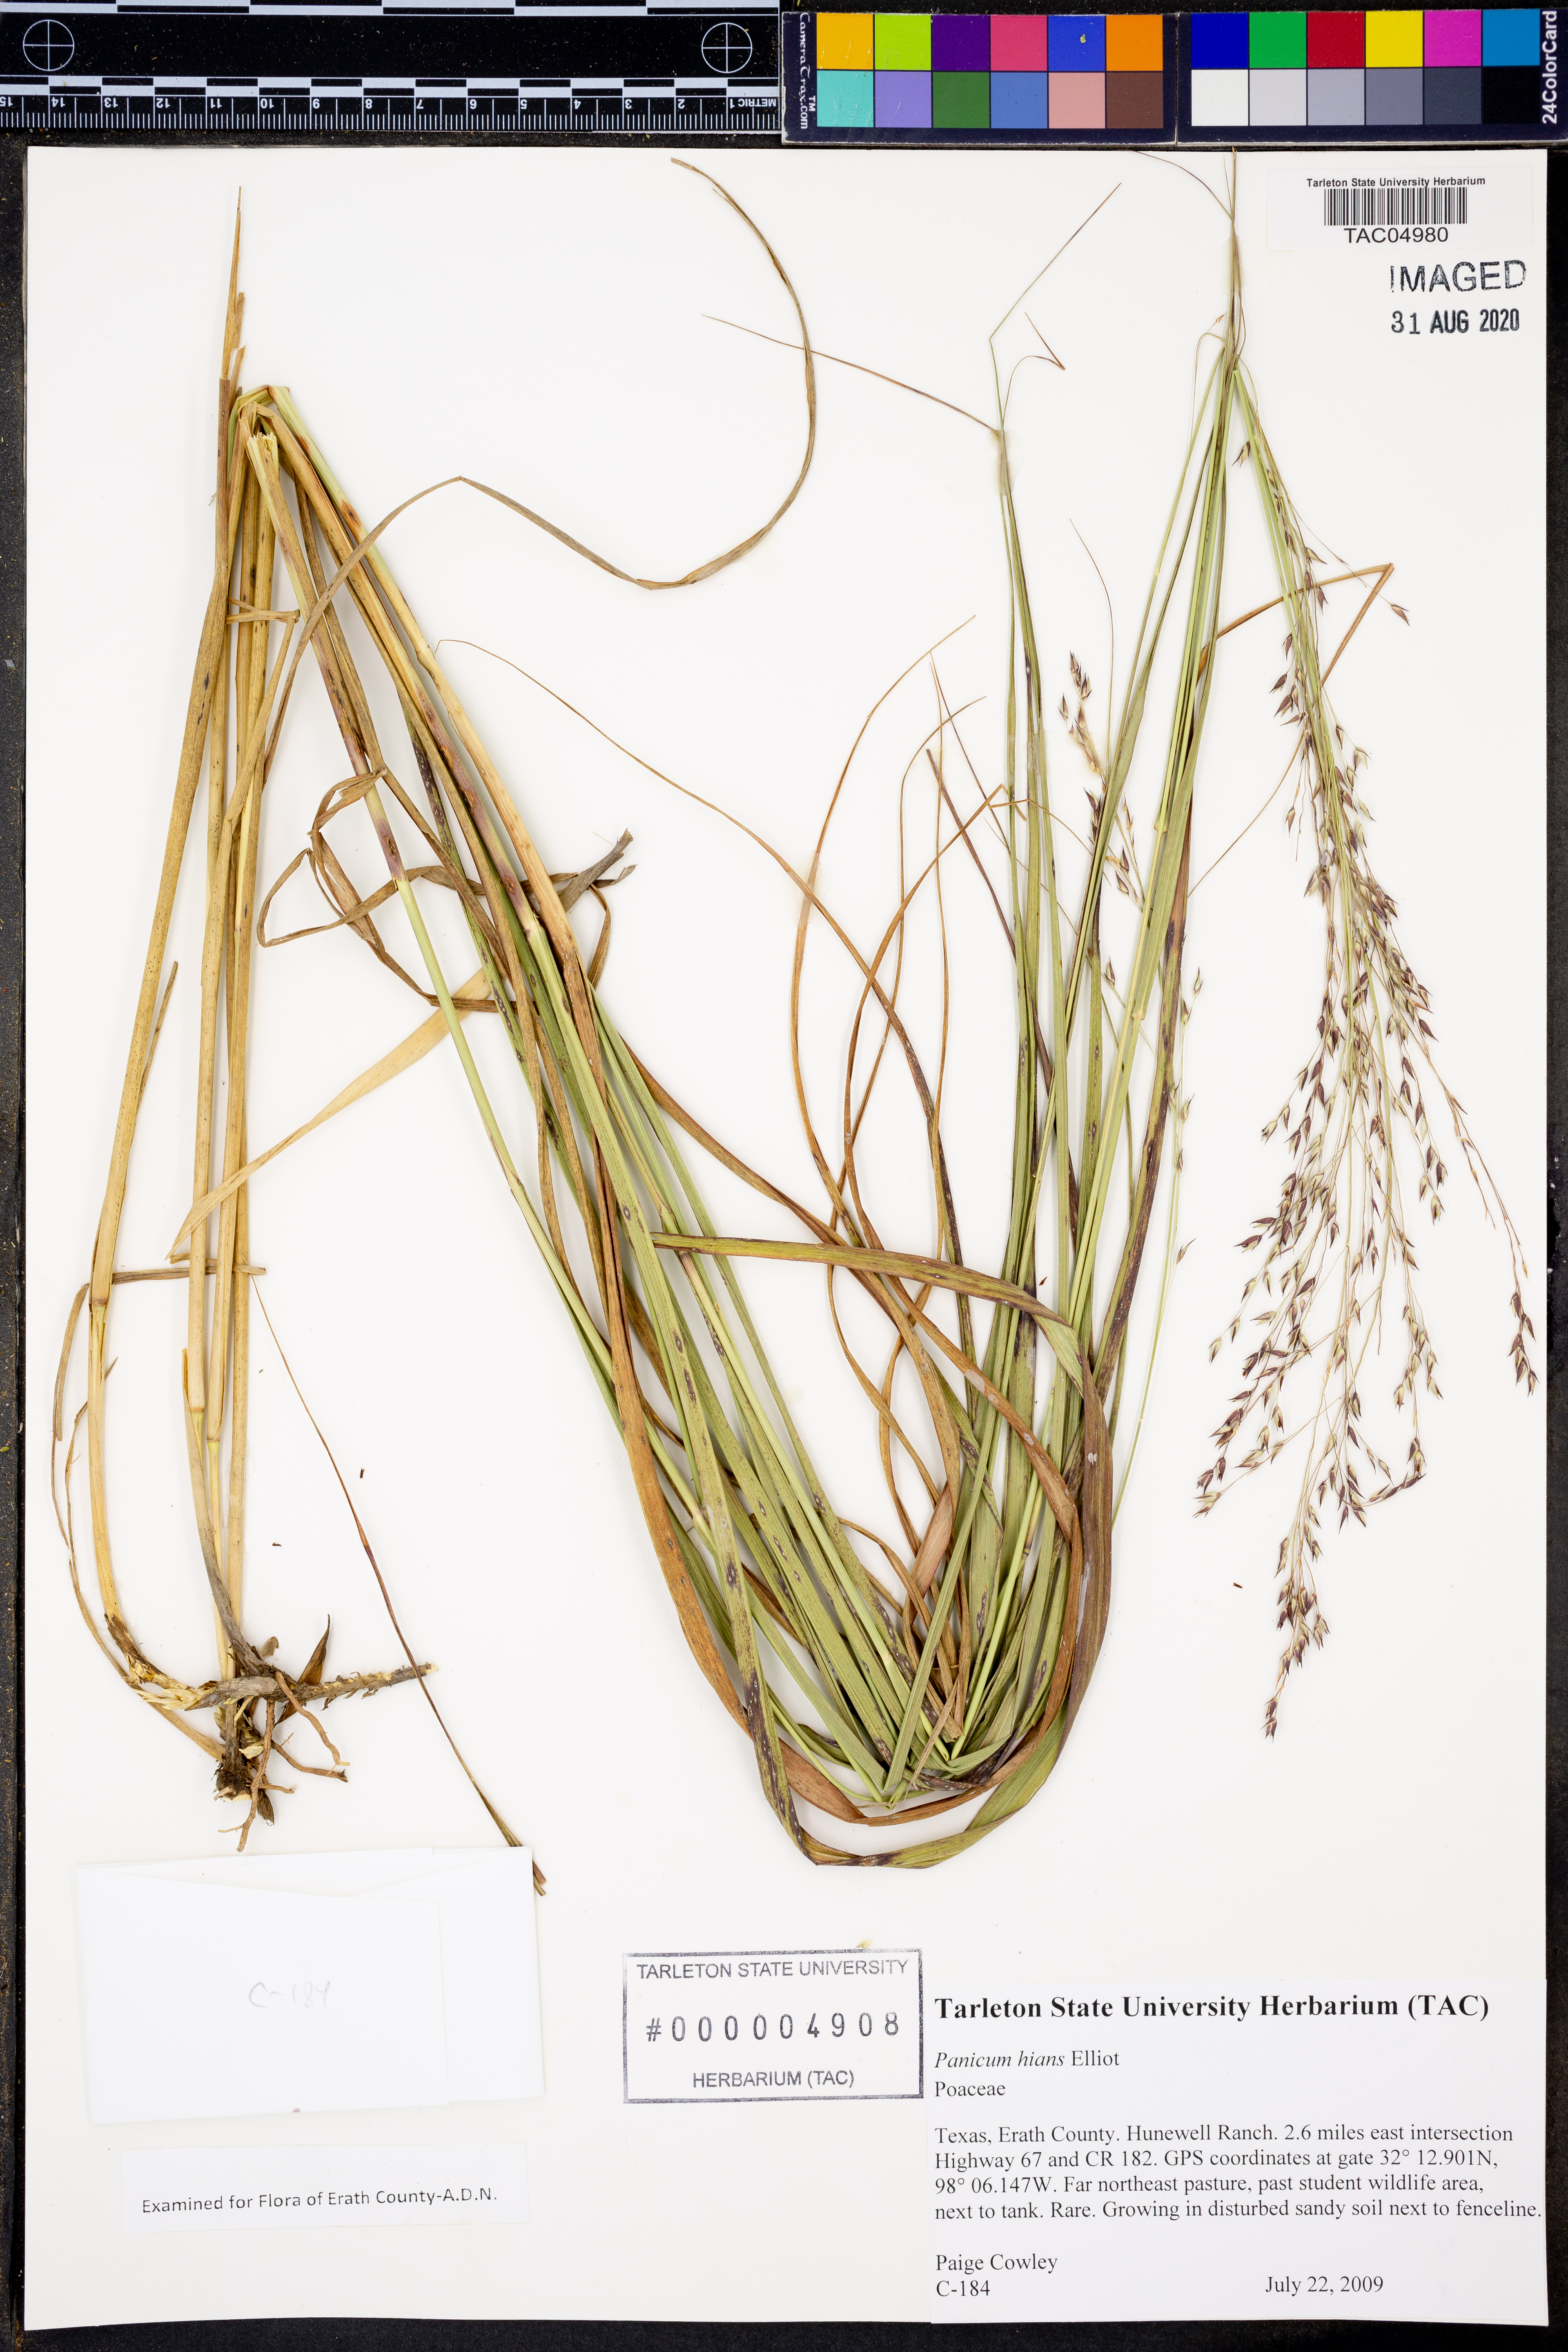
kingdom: Plantae
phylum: Tracheophyta
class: Liliopsida
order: Poales
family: Poaceae
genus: Coleataenia
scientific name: Coleataenia stenodes
